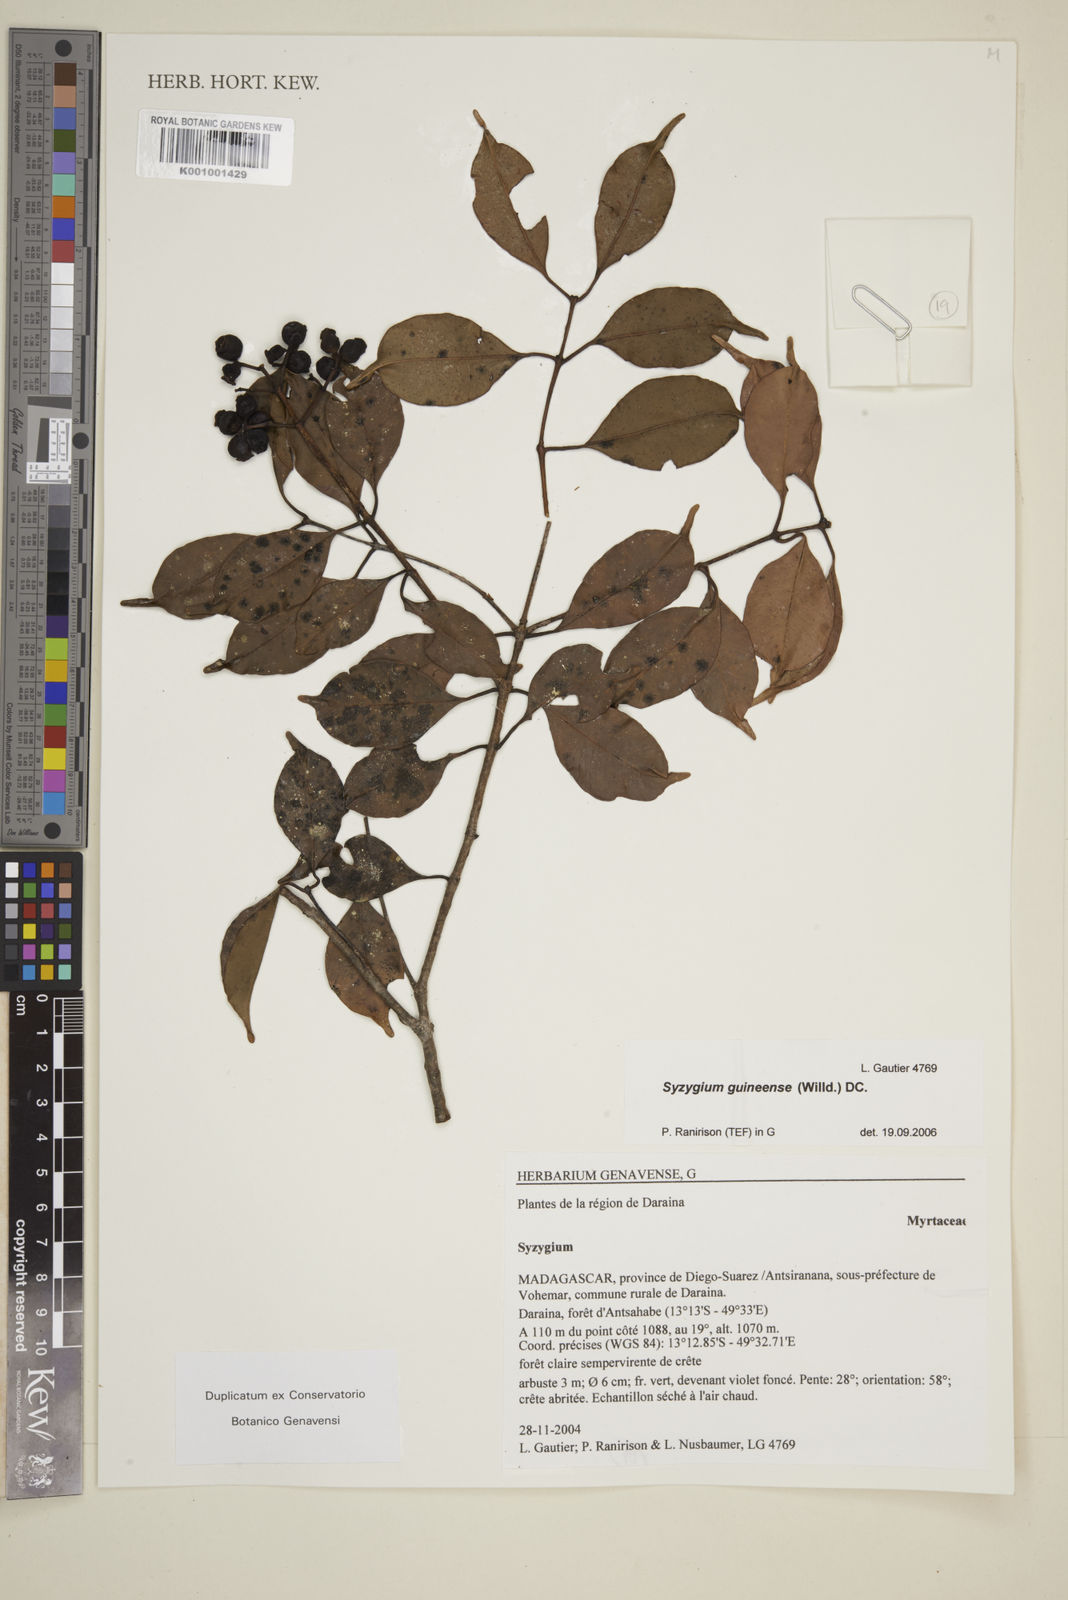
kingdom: Plantae
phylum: Tracheophyta
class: Magnoliopsida
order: Myrtales
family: Myrtaceae
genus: Eugenia
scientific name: Eugenia comorensis
